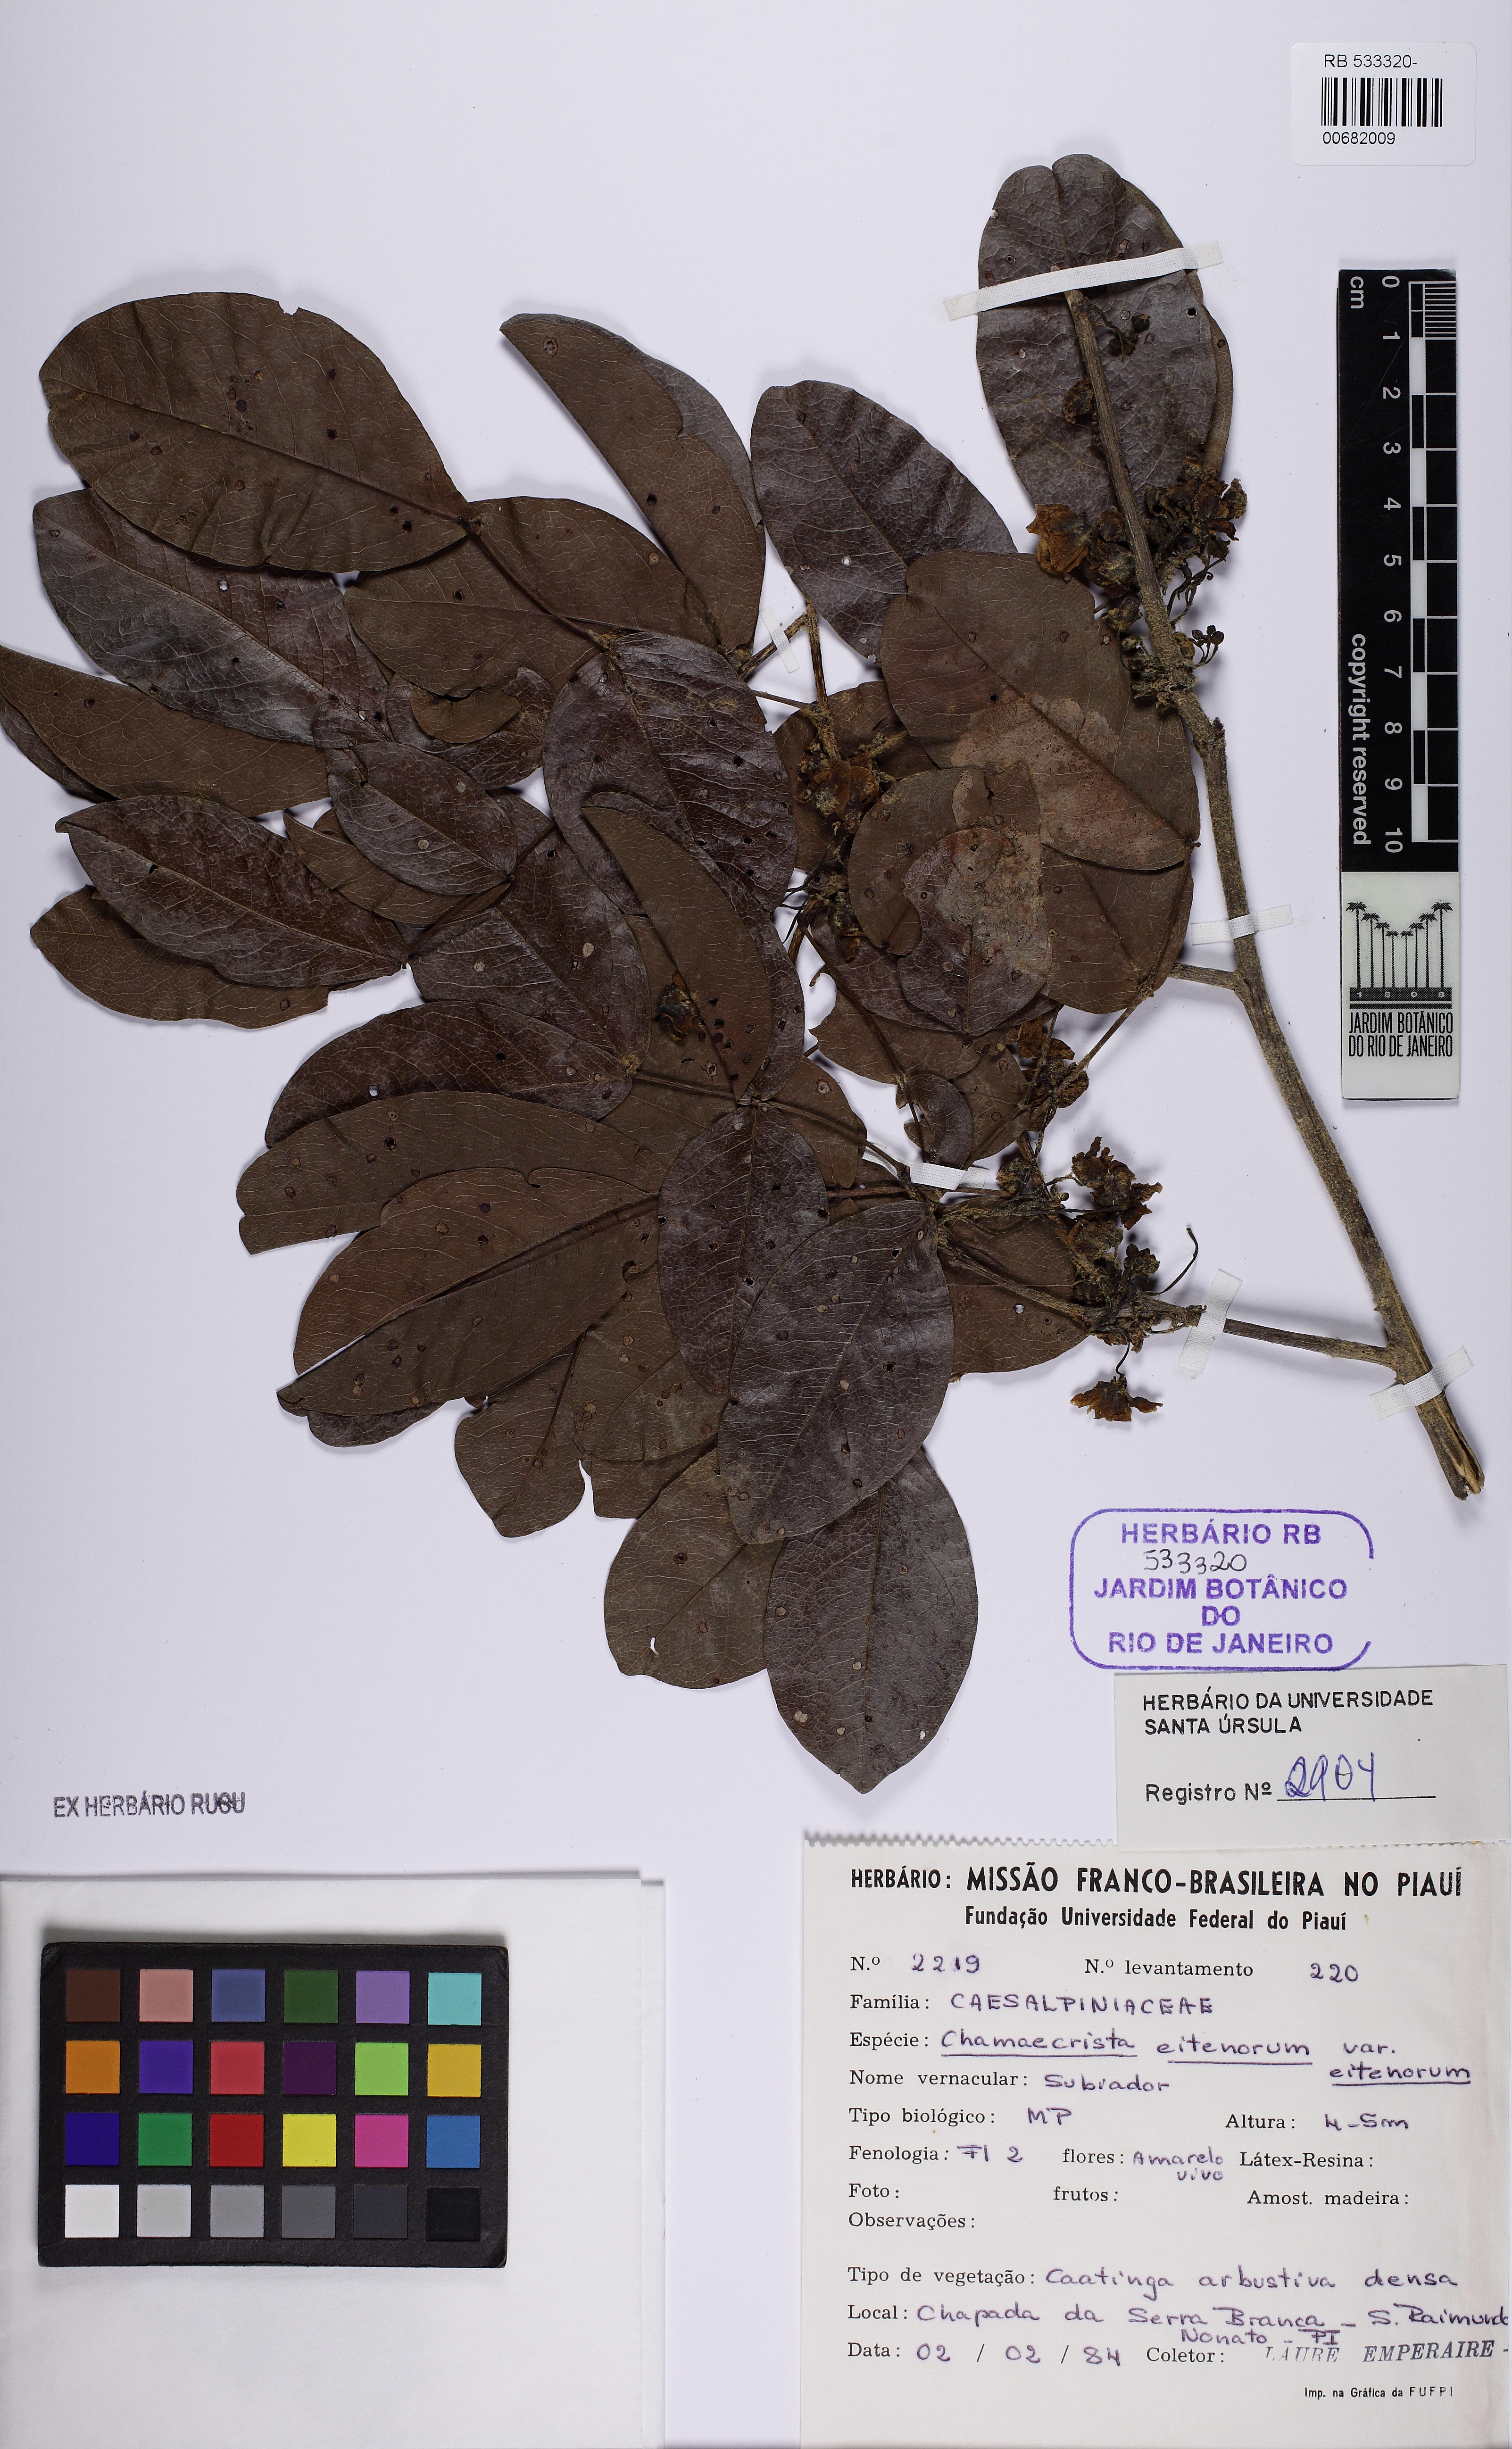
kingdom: Plantae
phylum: Tracheophyta
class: Magnoliopsida
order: Fabales
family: Fabaceae
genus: Chamaecrista
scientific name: Chamaecrista eitenorum
